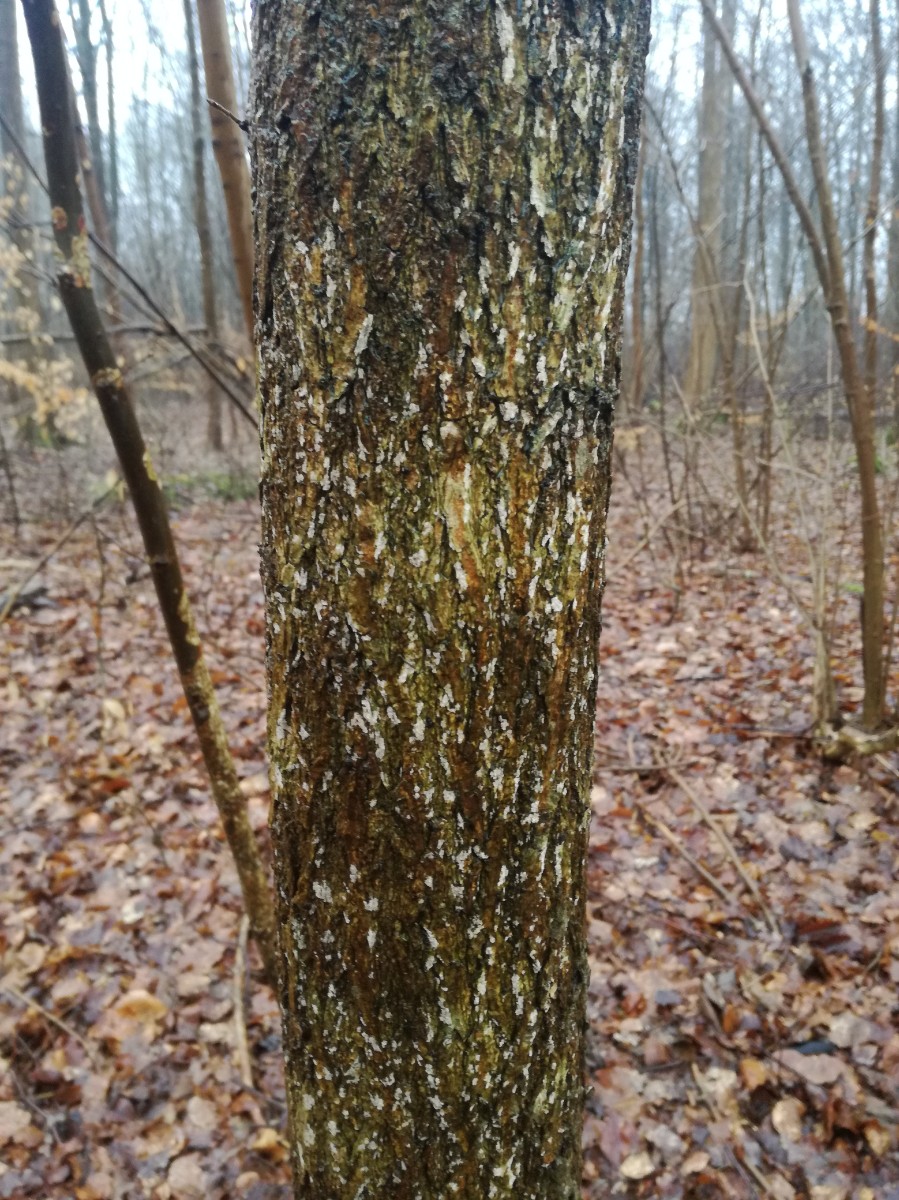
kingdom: Fungi
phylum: Basidiomycota
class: Agaricomycetes
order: Corticiales
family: Corticiaceae
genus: Dendrothele
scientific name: Dendrothele
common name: kalkplet
